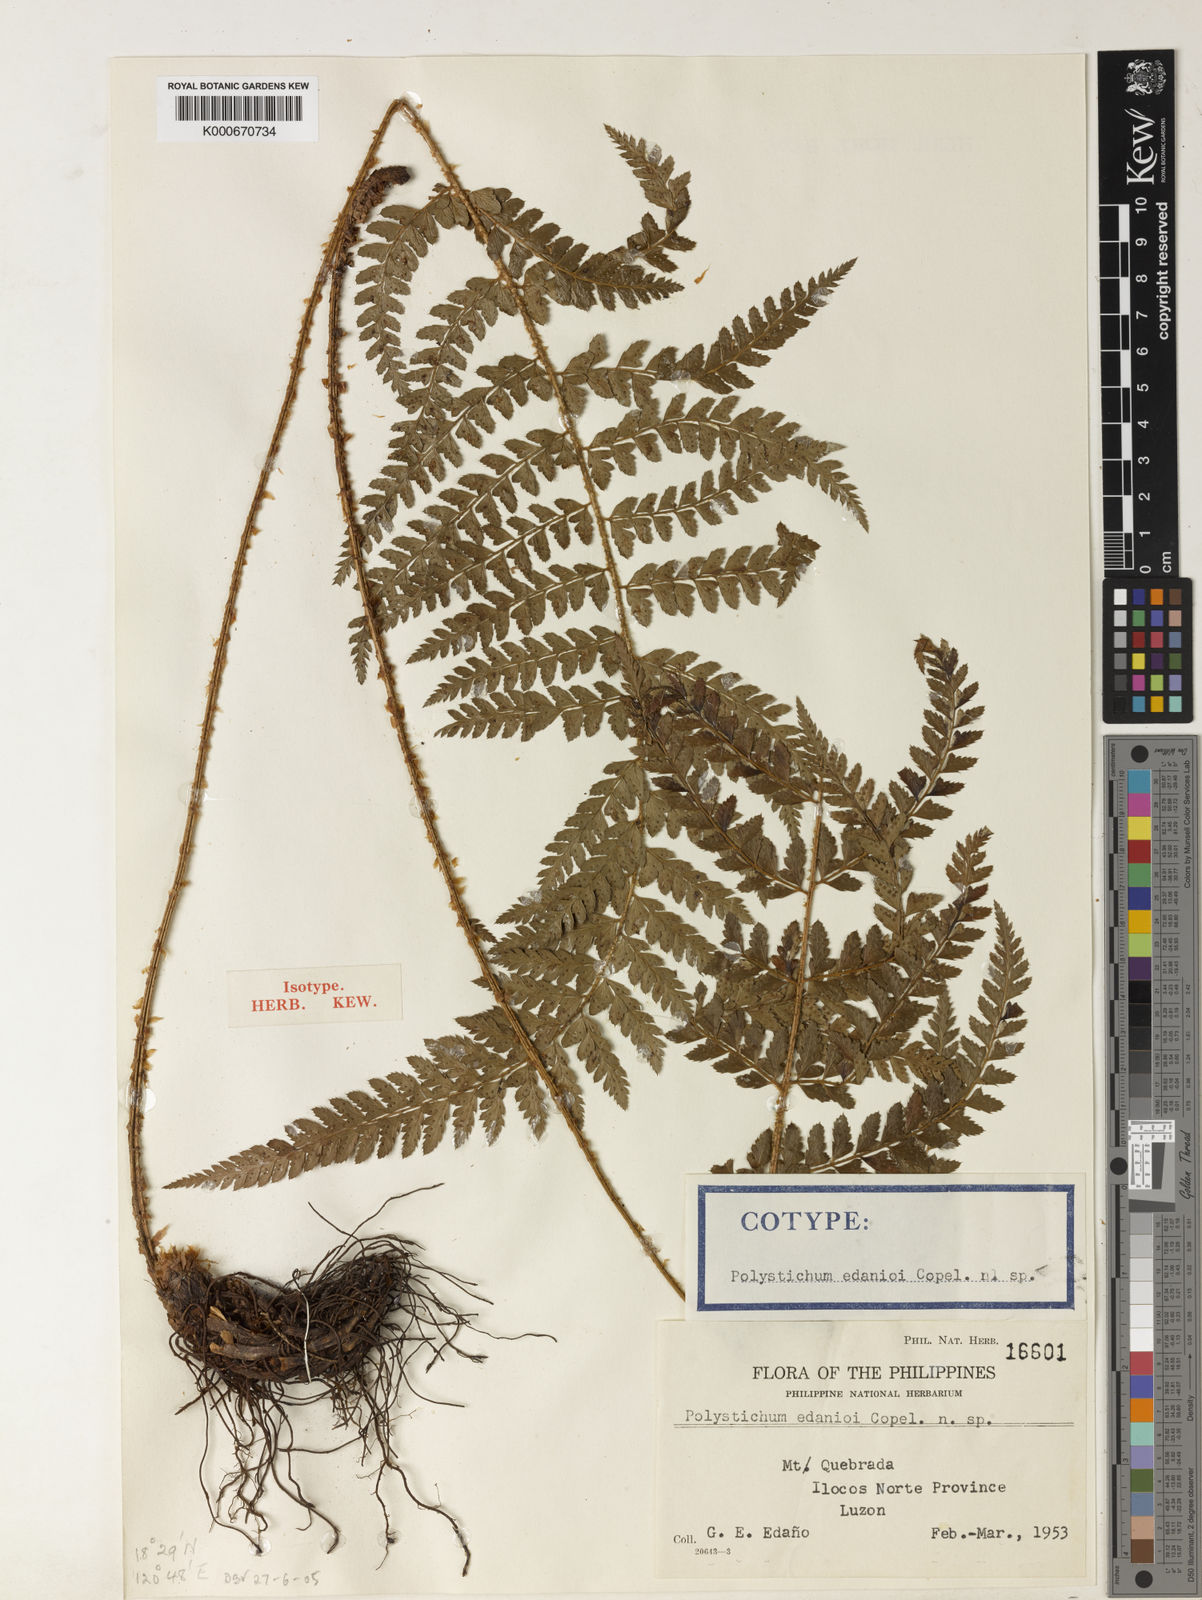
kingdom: Plantae
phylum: Tracheophyta
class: Polypodiopsida
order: Polypodiales
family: Dryopteridaceae
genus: Polystichum
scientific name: Polystichum obtusum
